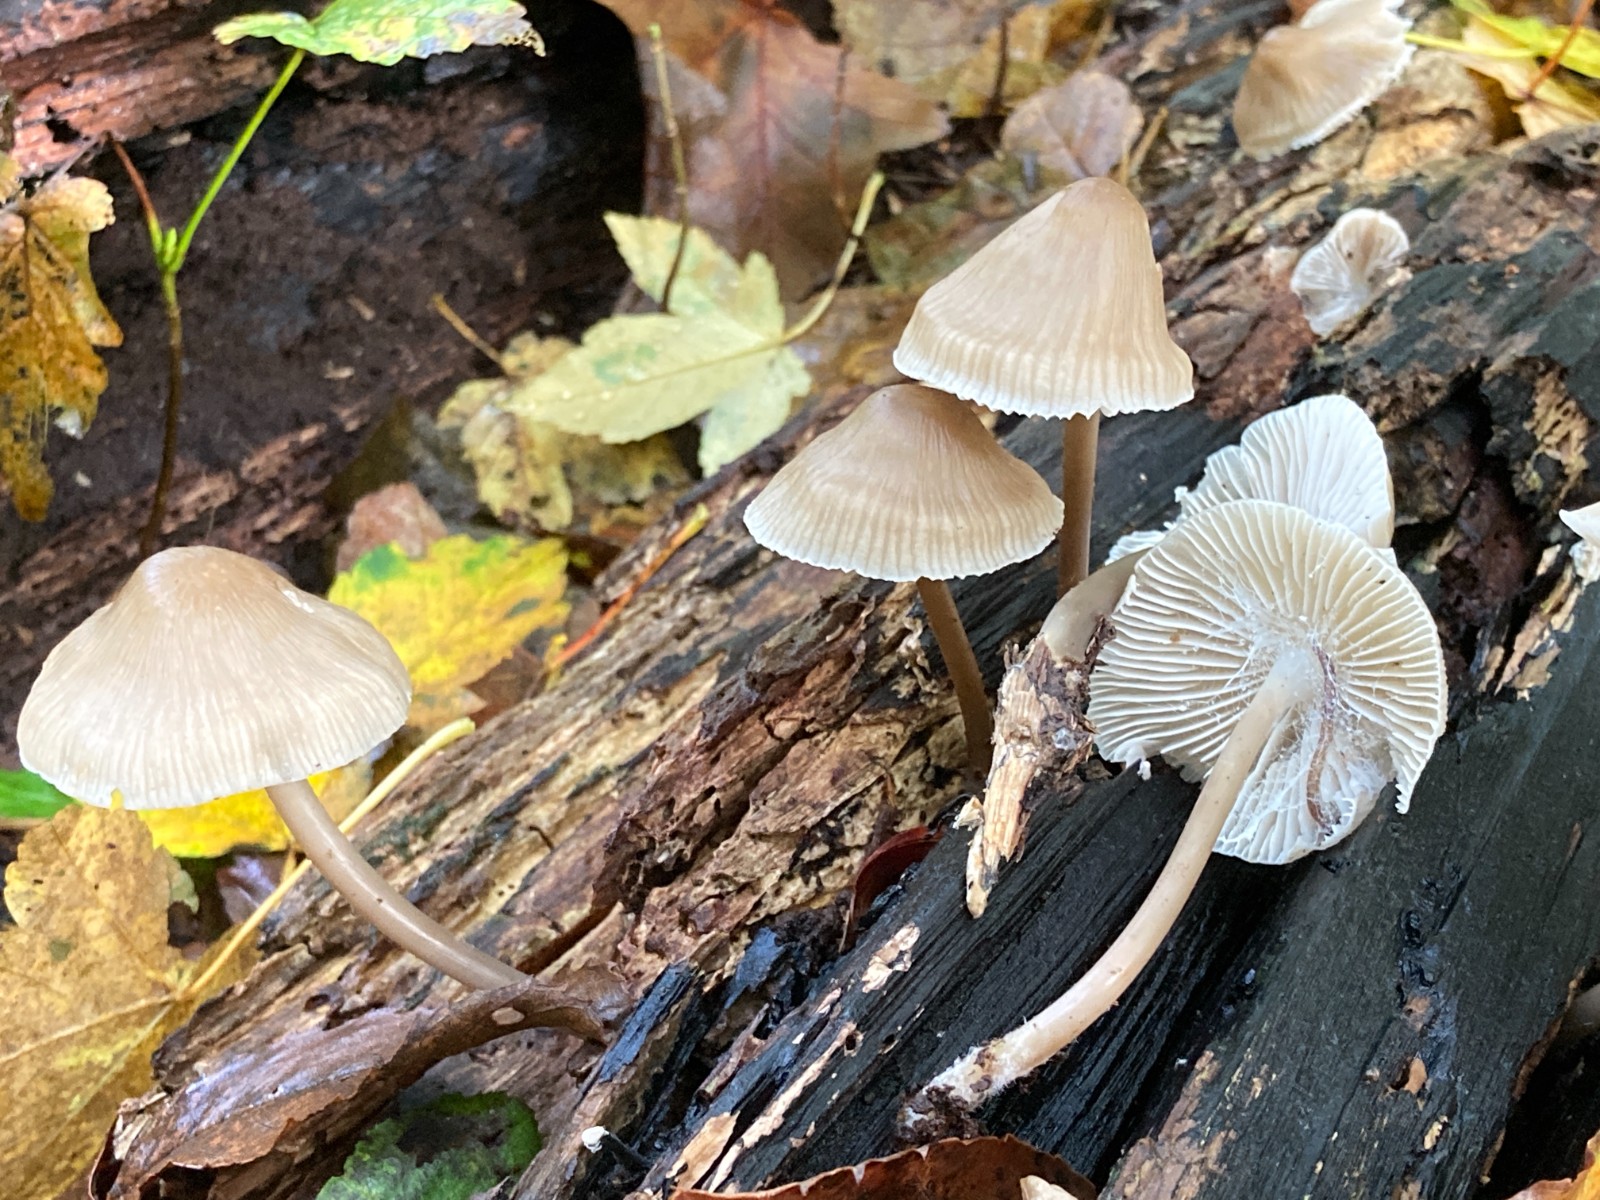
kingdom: Fungi
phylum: Basidiomycota
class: Agaricomycetes
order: Agaricales
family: Mycenaceae
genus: Mycena
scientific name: Mycena galericulata
